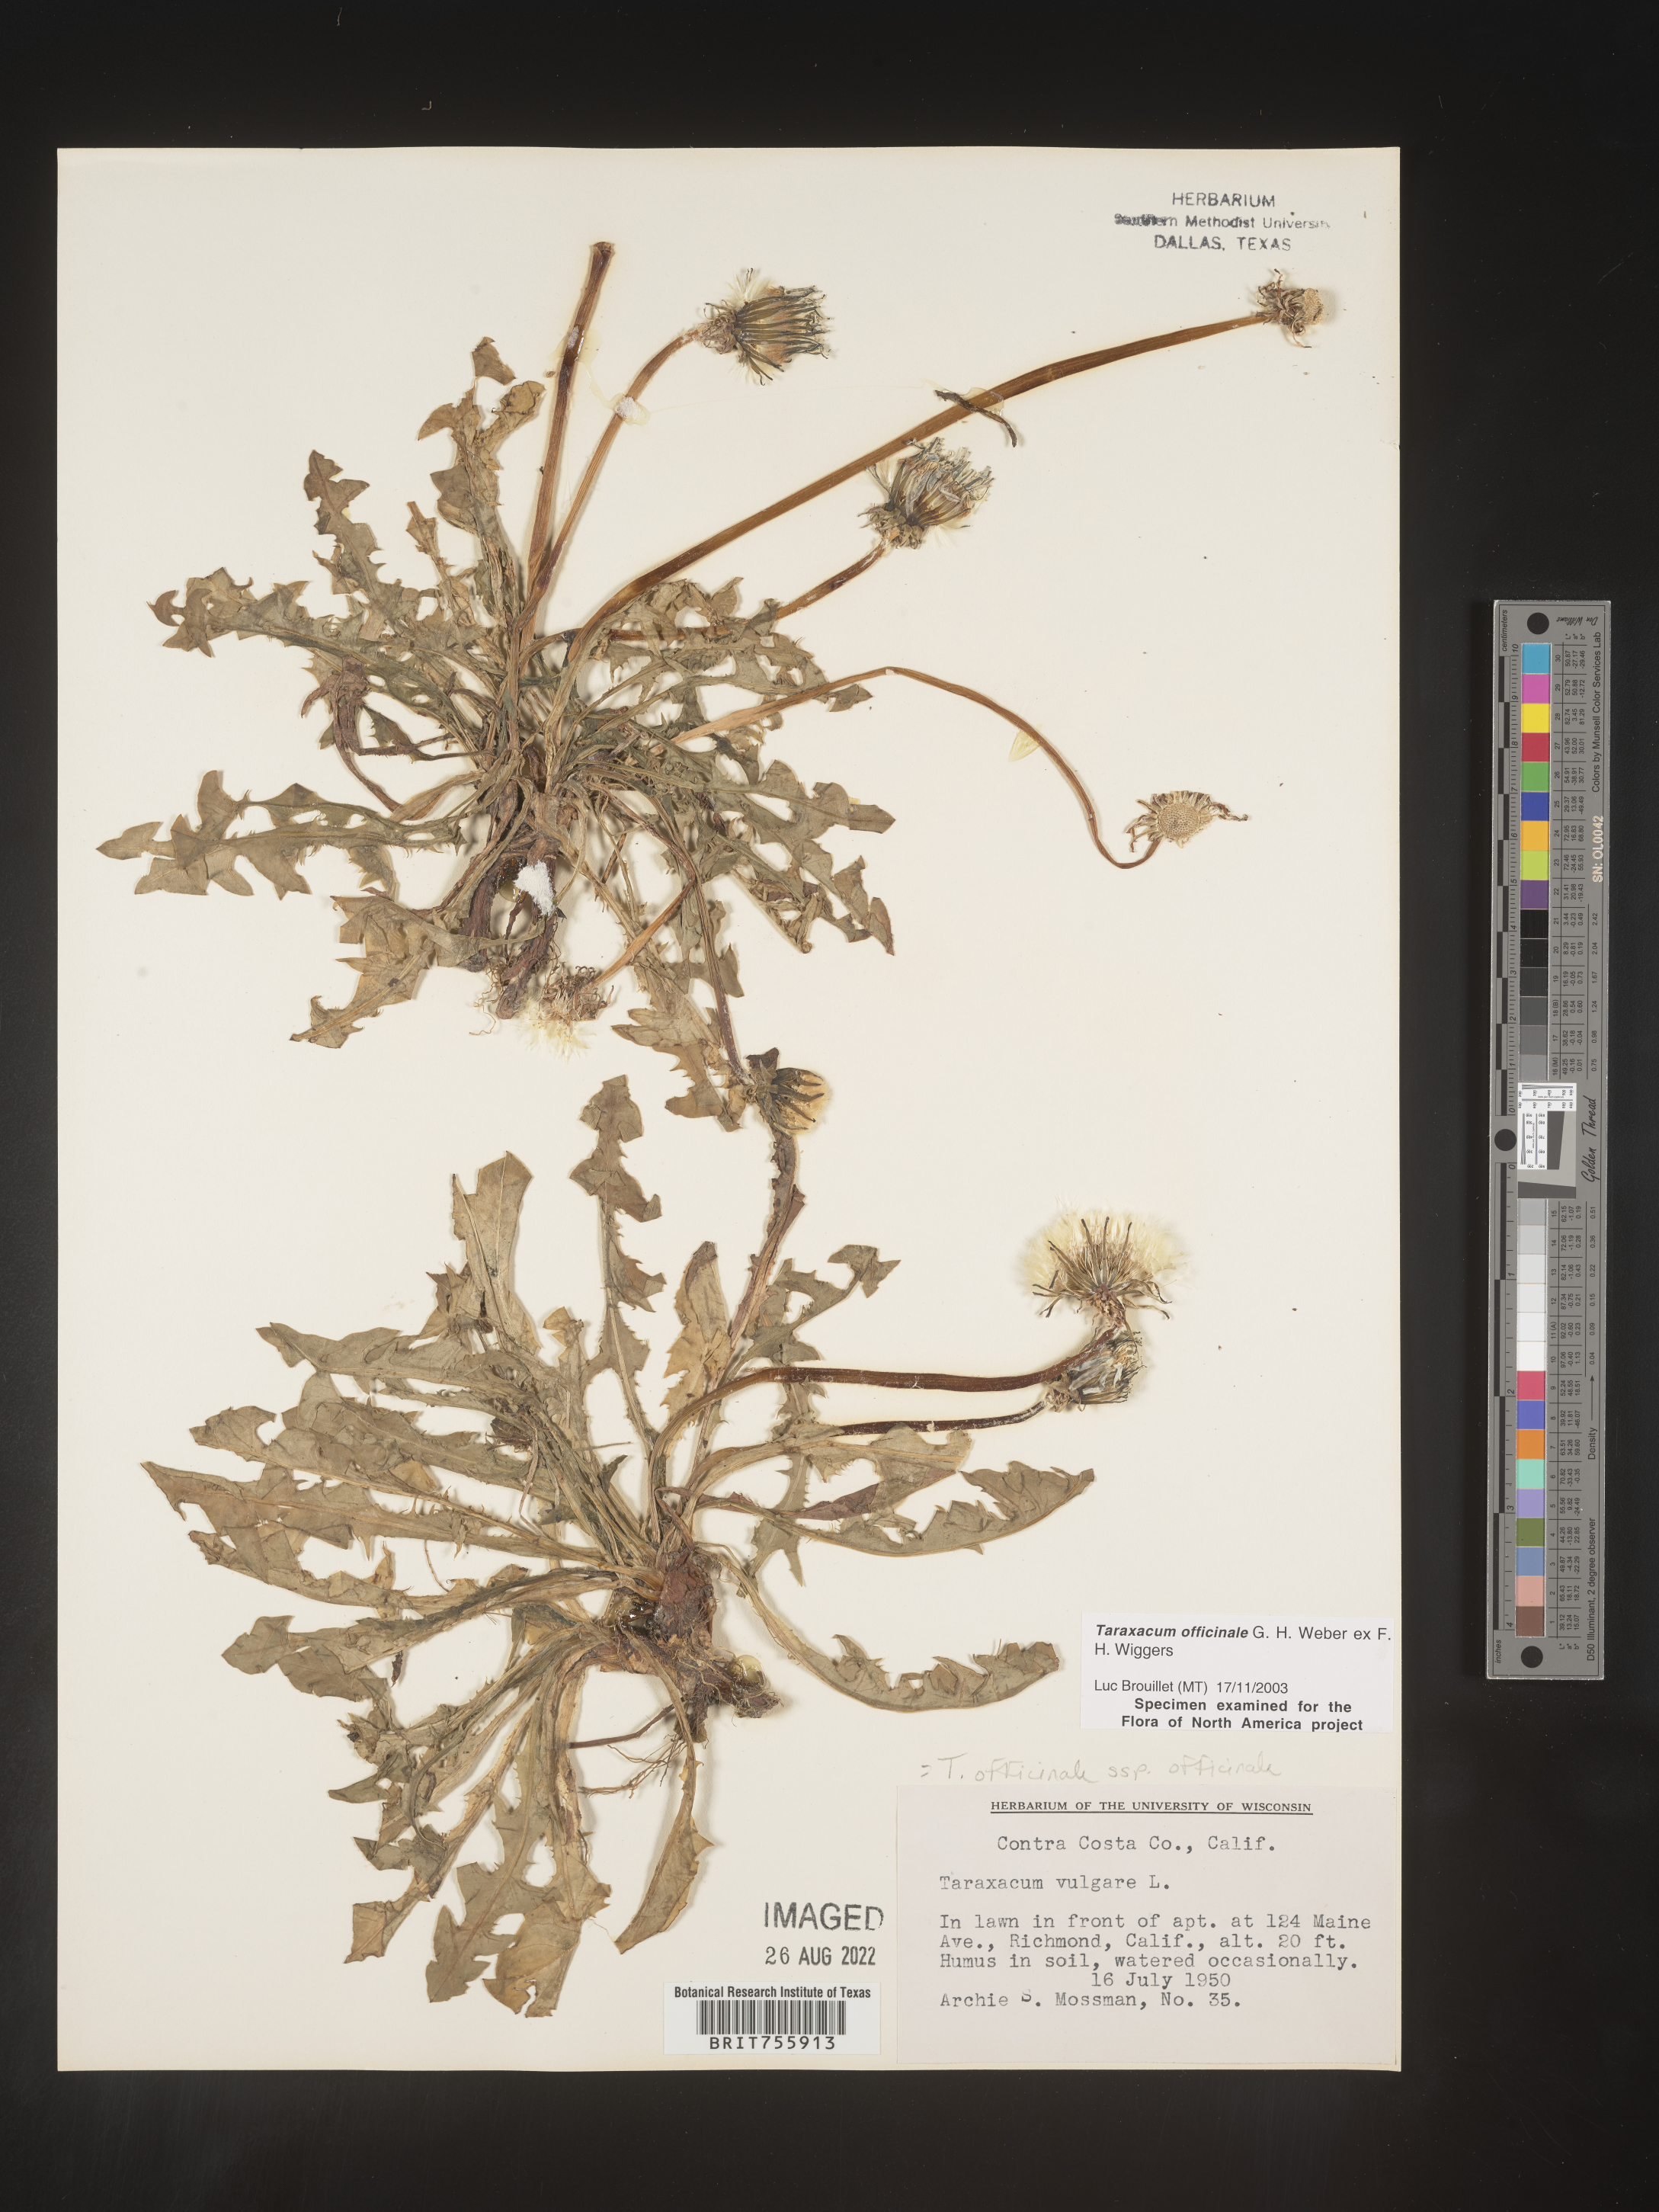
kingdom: Plantae
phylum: Tracheophyta
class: Magnoliopsida
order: Asterales
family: Asteraceae
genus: Taraxacum
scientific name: Taraxacum officinale
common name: Common dandelion
